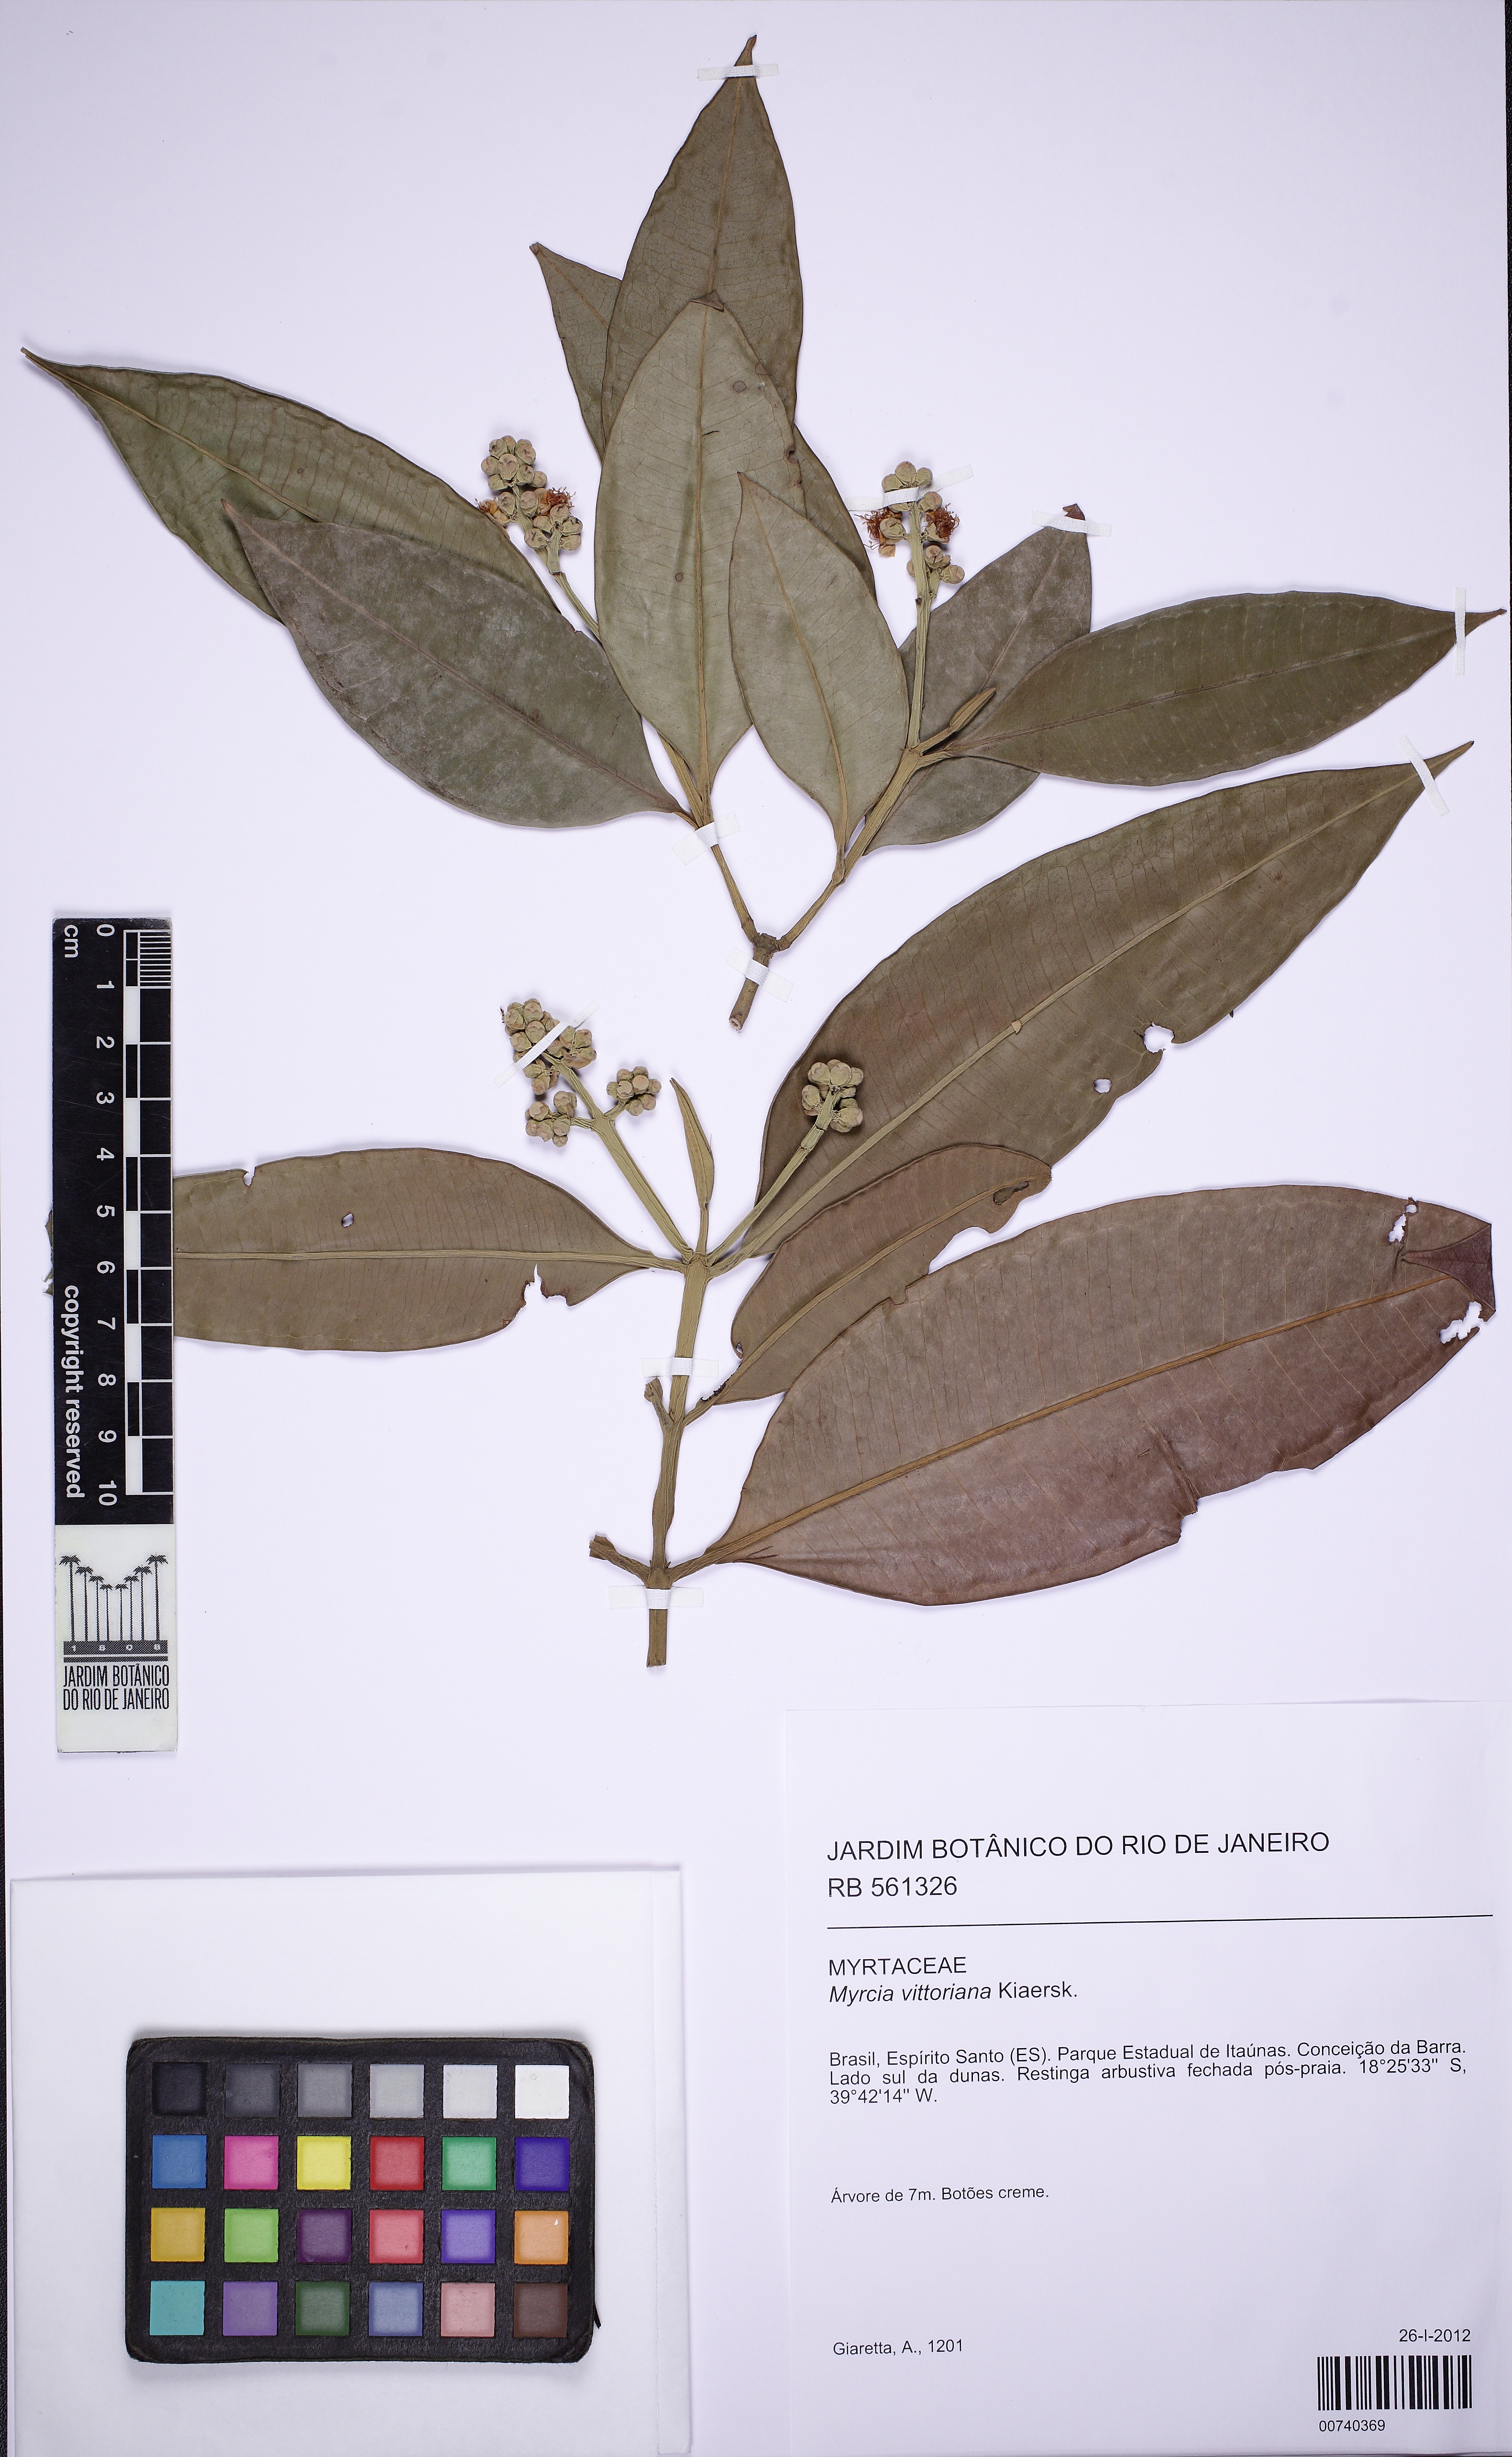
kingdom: Plantae
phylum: Tracheophyta
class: Magnoliopsida
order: Myrtales
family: Myrtaceae
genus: Myrcia
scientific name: Myrcia vittoriana
